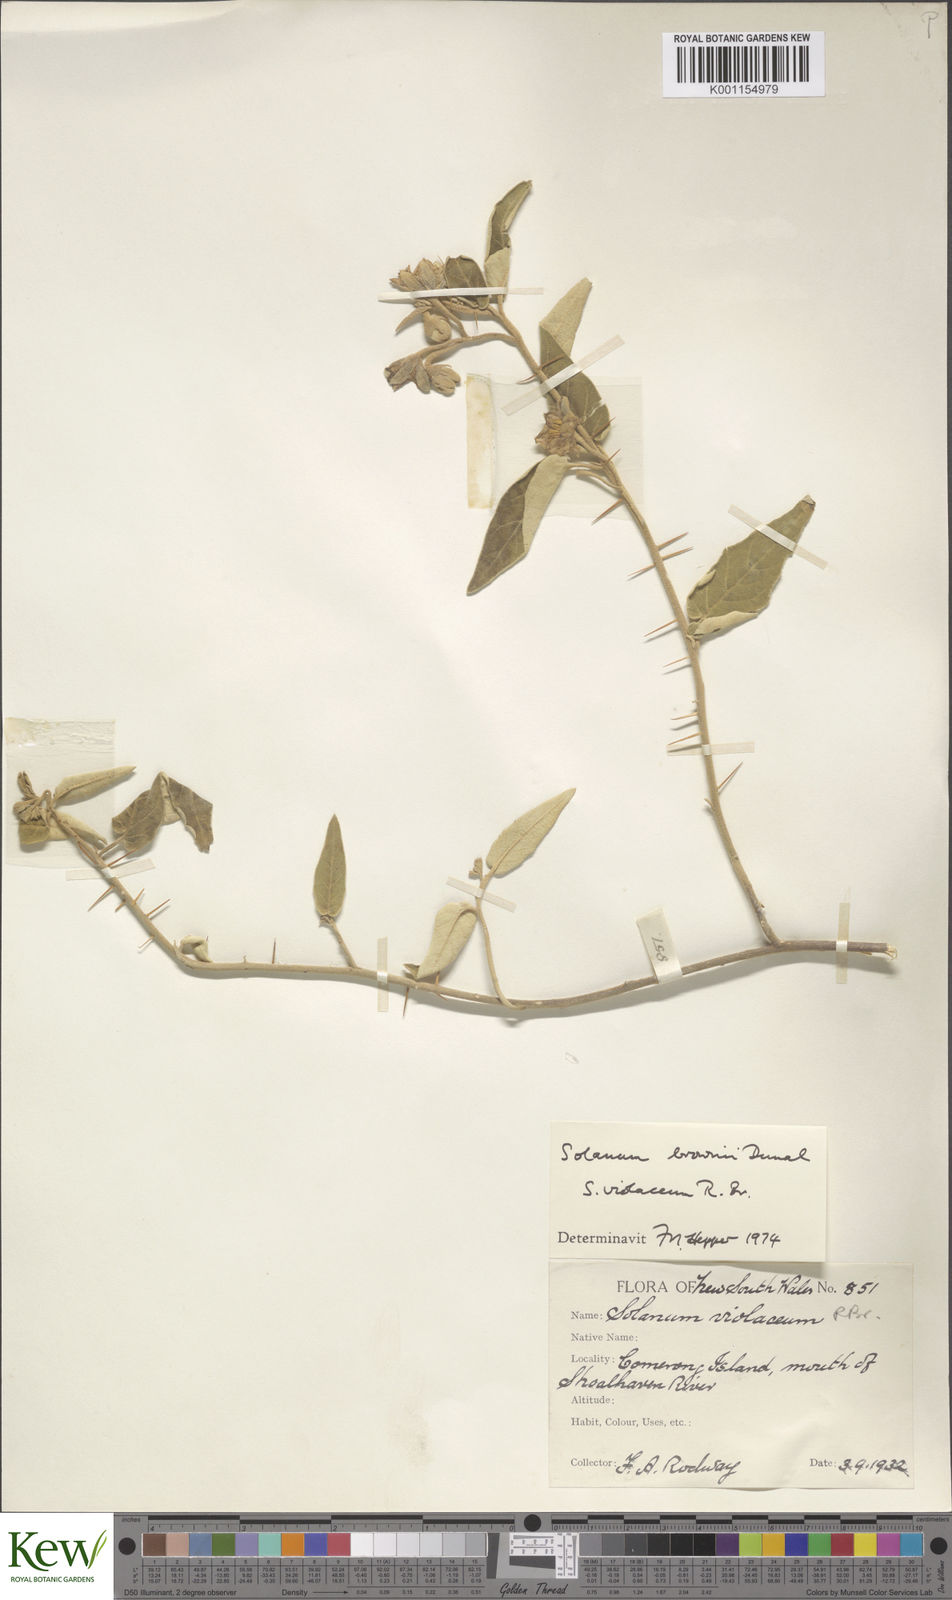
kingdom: Plantae
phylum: Tracheophyta
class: Magnoliopsida
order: Solanales
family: Solanaceae
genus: Solanum
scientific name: Solanum brownii
